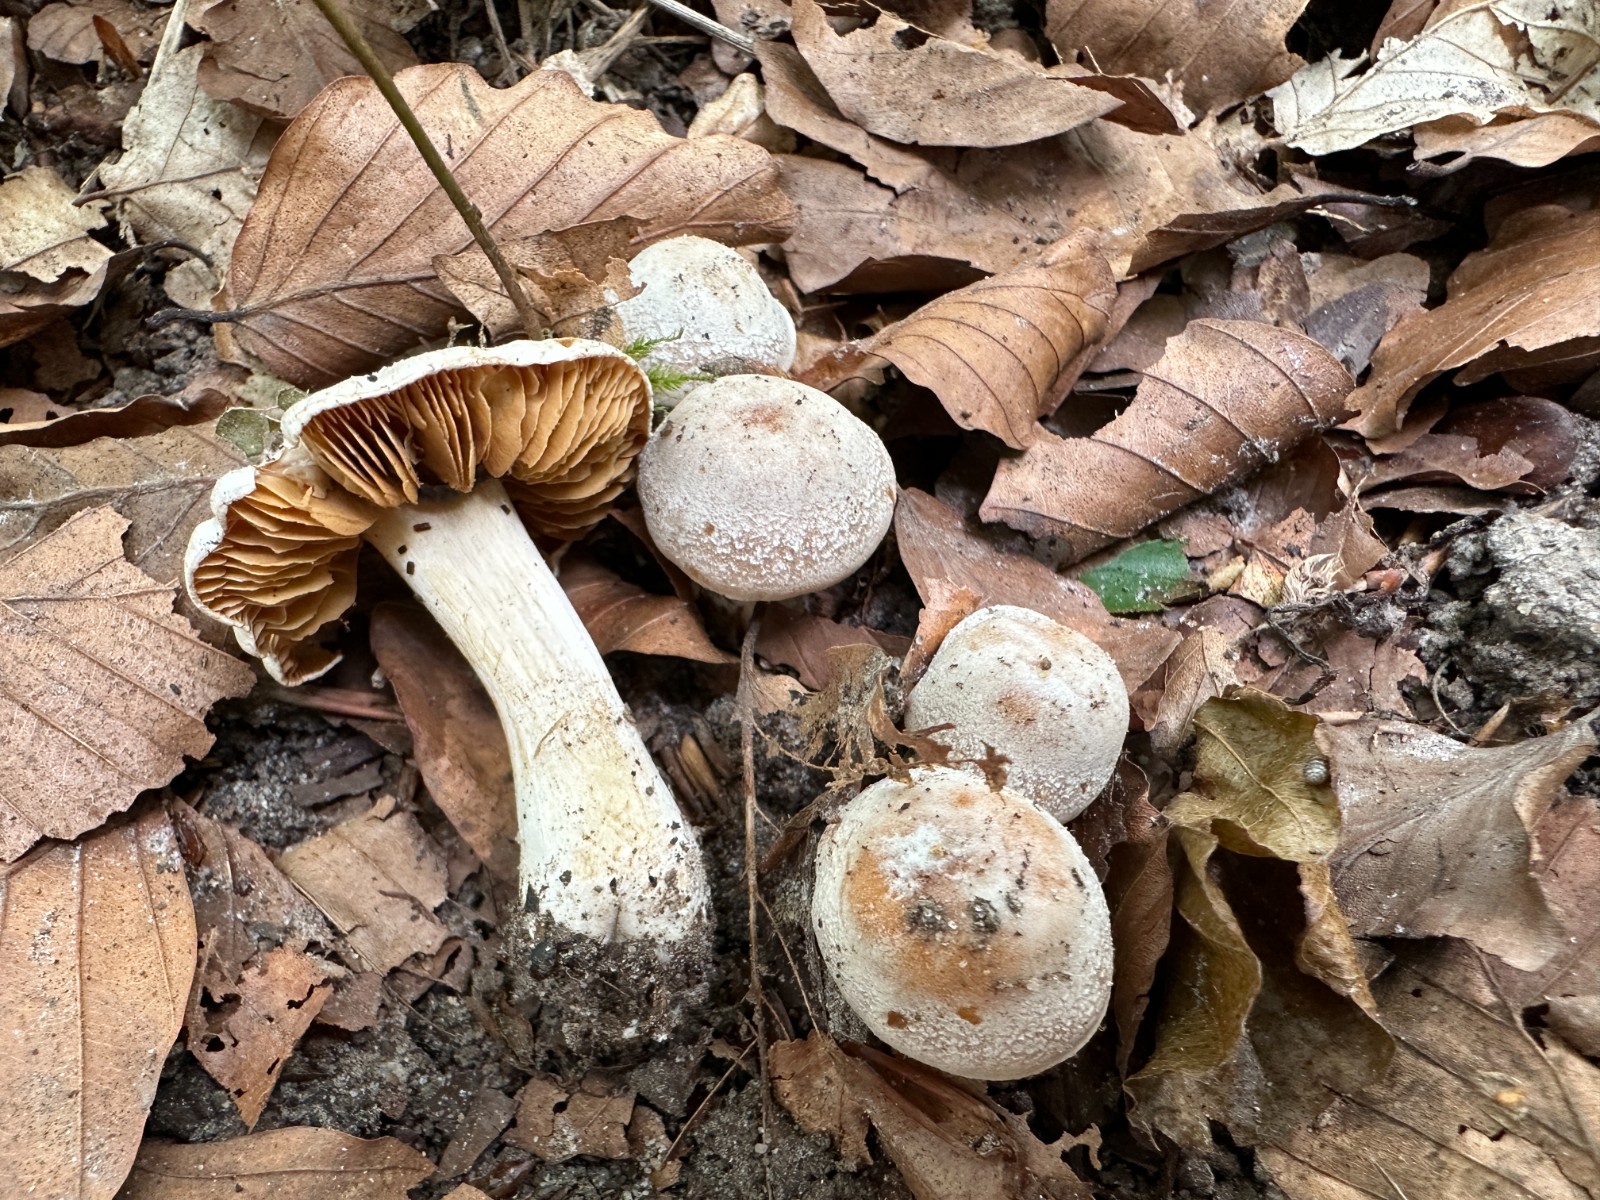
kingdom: Fungi
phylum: Basidiomycota
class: Agaricomycetes
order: Agaricales
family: Cortinariaceae
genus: Cortinarius
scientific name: Cortinarius
